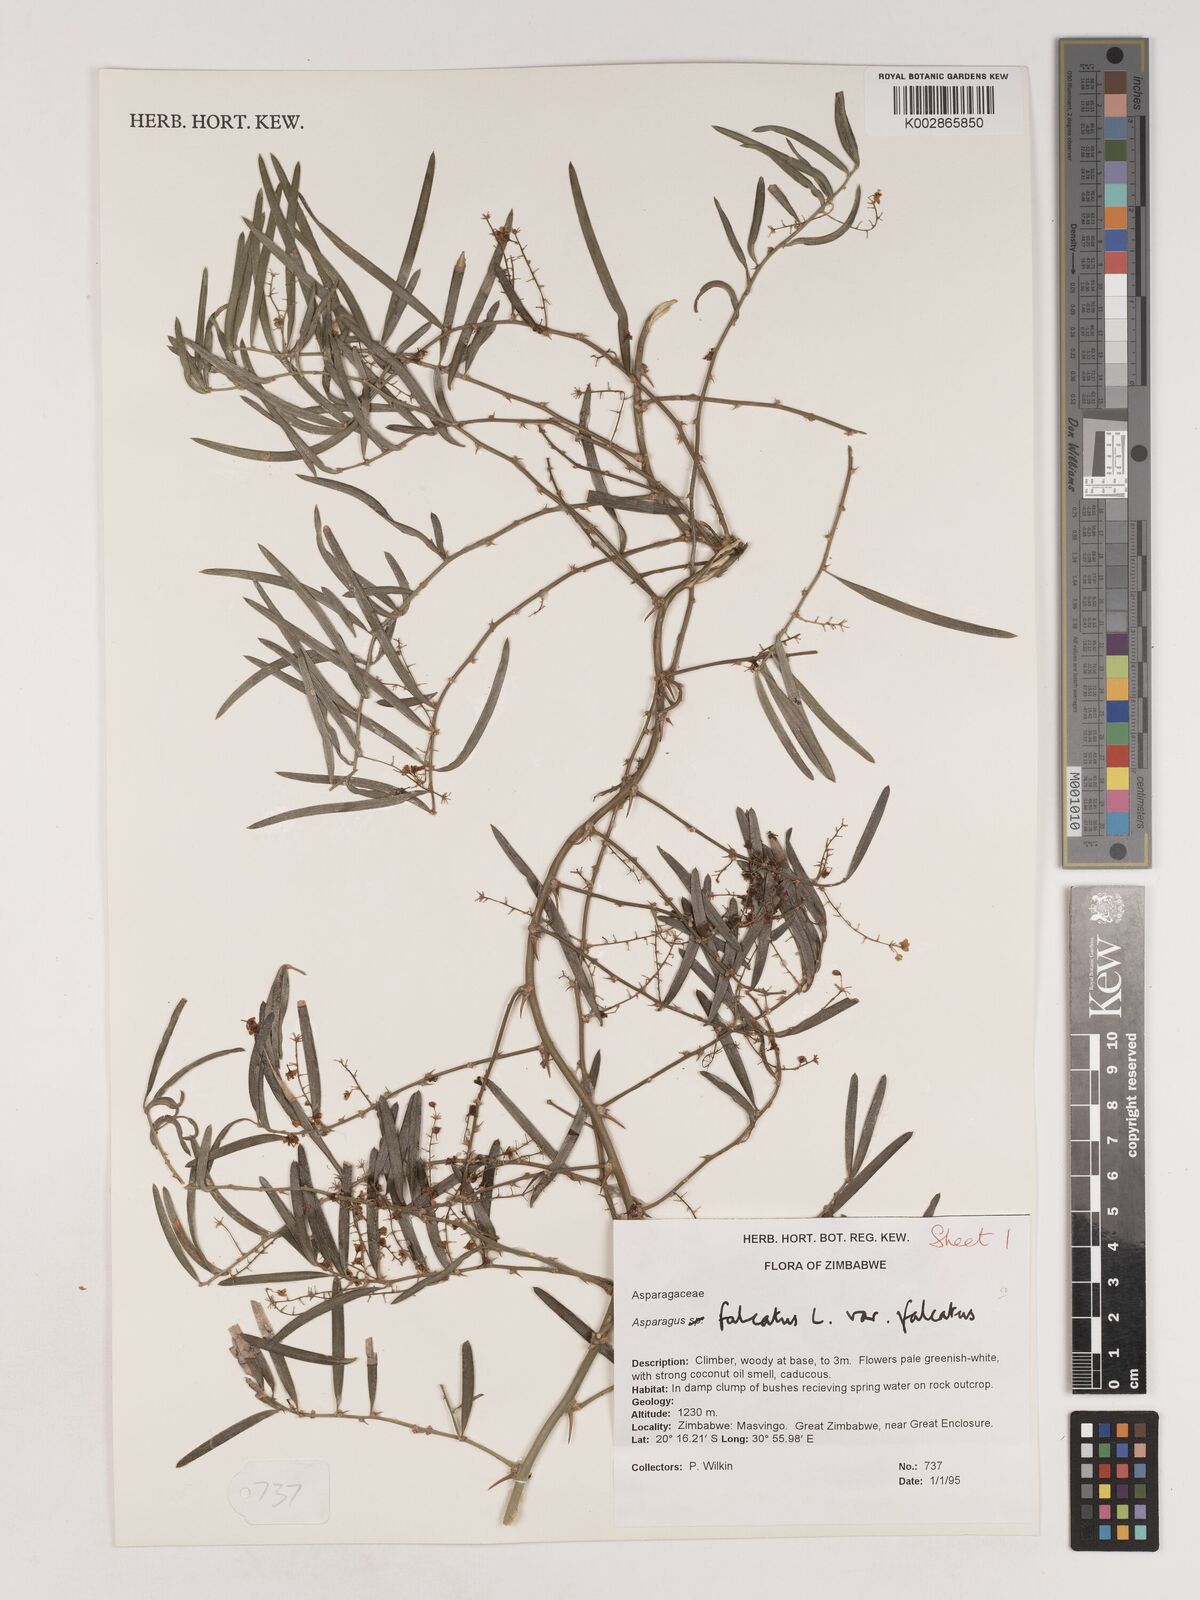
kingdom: Plantae
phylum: Tracheophyta
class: Liliopsida
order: Asparagales
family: Asparagaceae
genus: Asparagus
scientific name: Asparagus falcatus
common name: Asparagus
